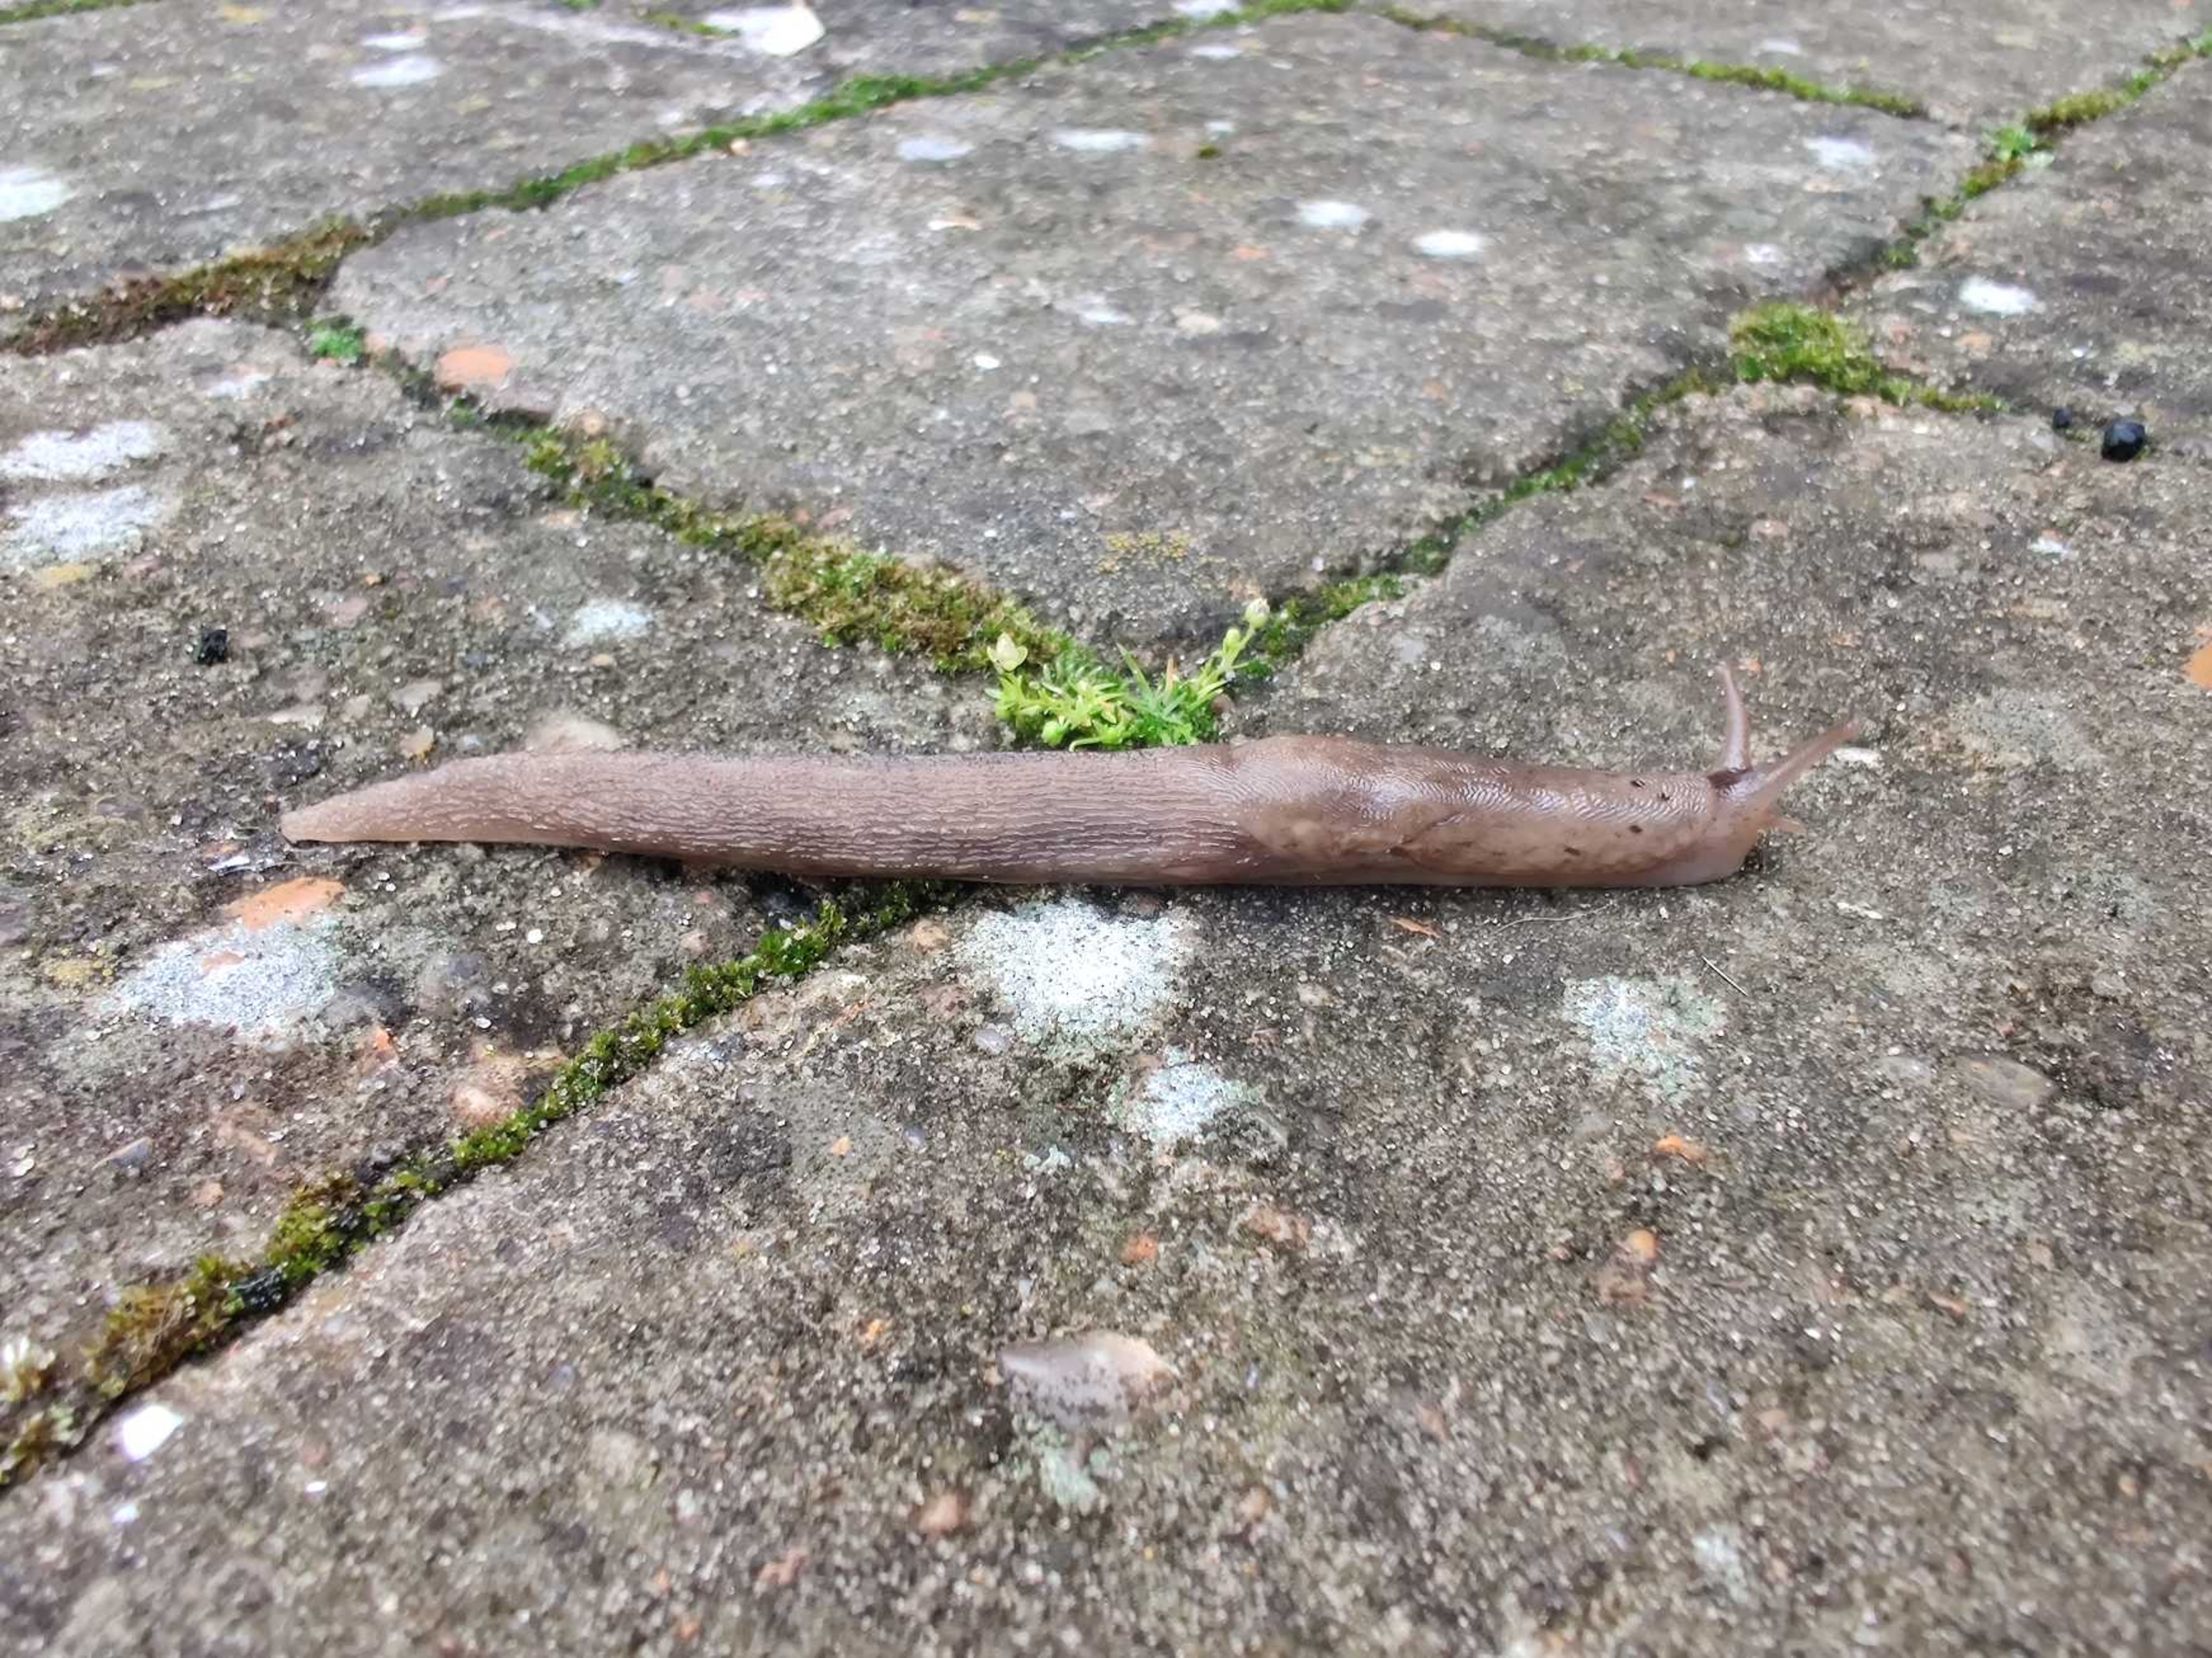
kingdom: Animalia
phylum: Mollusca
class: Gastropoda
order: Stylommatophora
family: Limacidae
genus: Limax
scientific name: Limax maximus
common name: Pantersnegl
